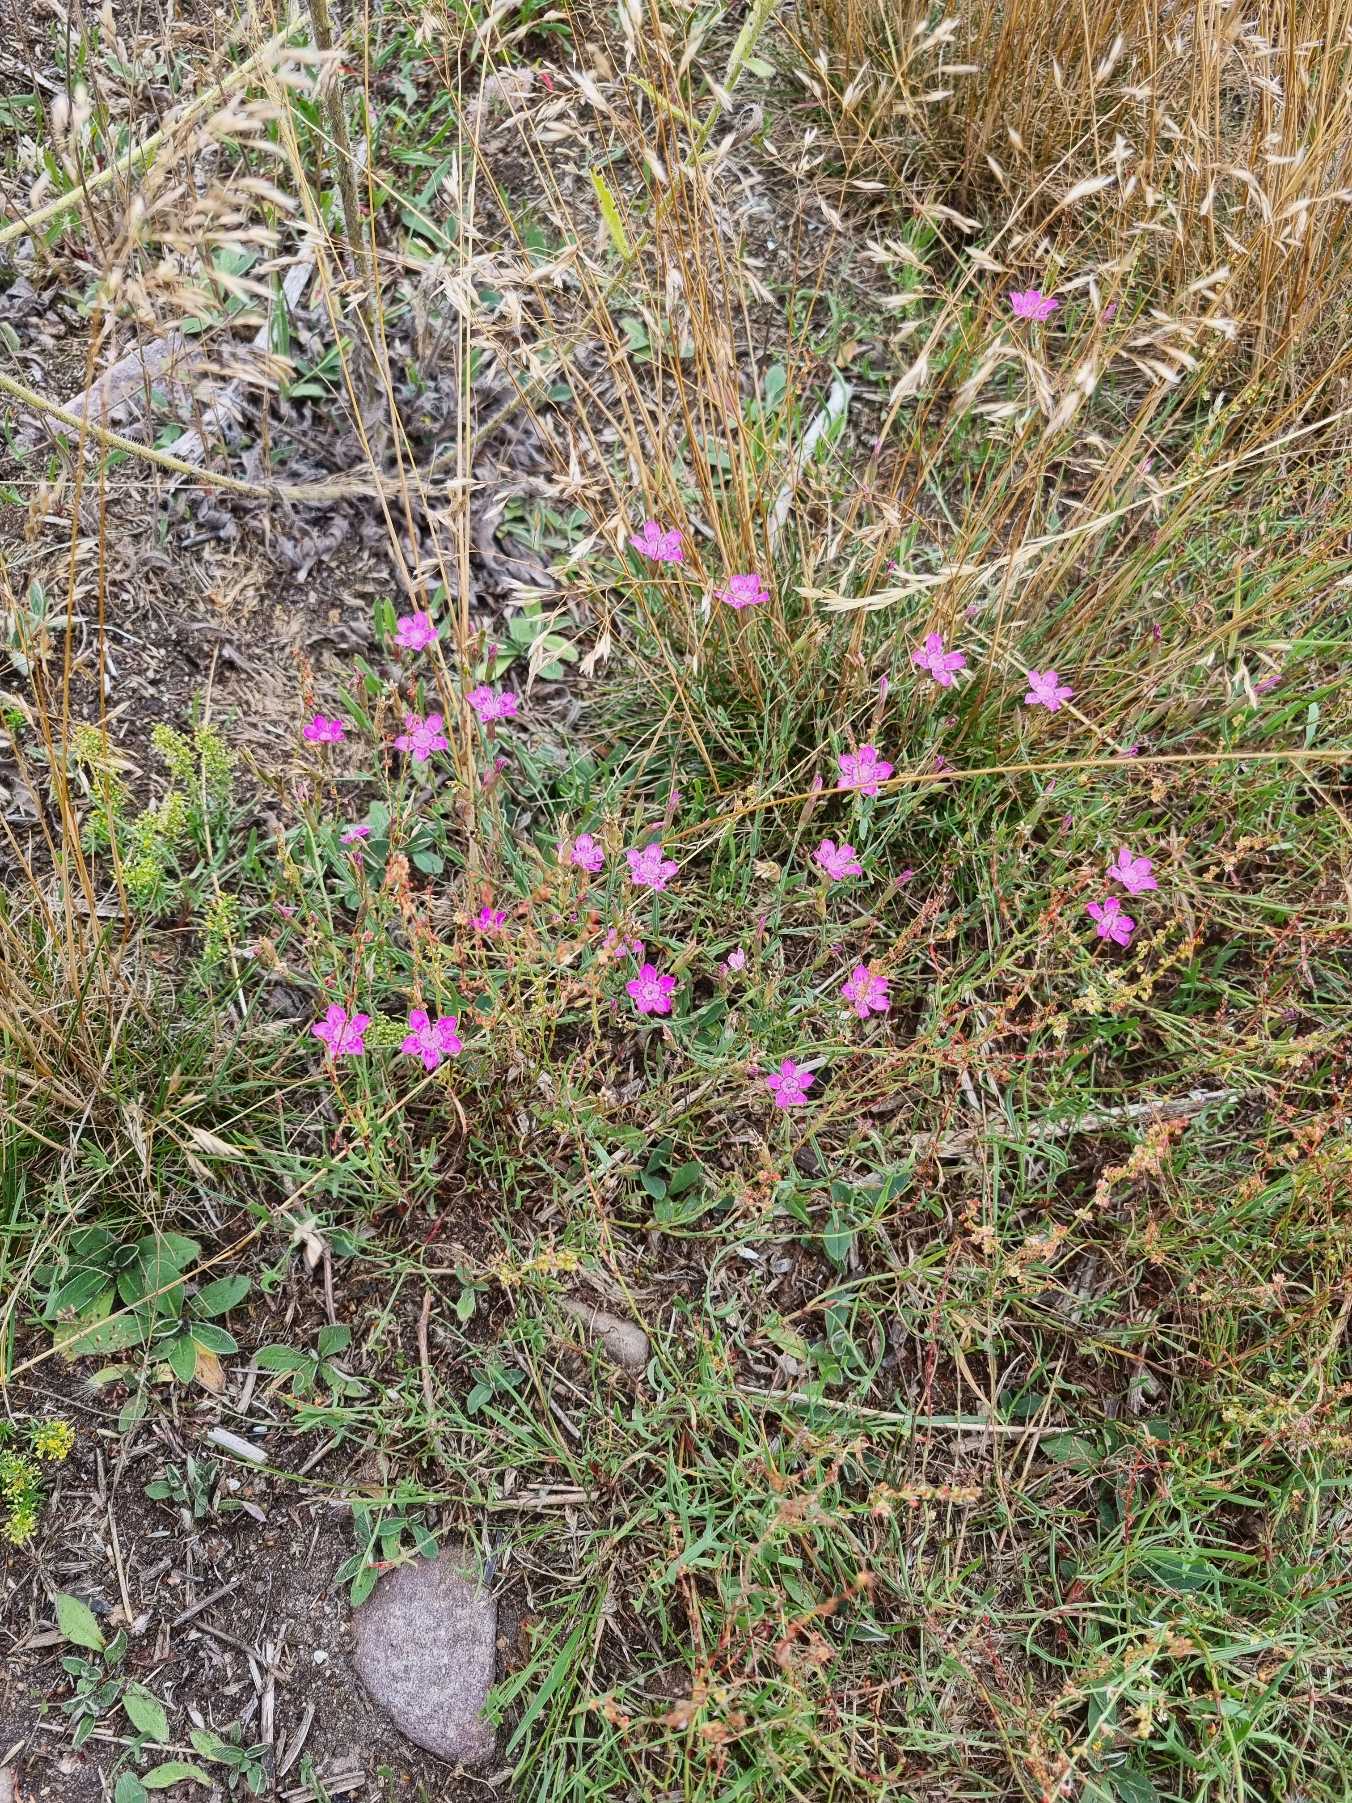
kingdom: Plantae
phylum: Tracheophyta
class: Magnoliopsida
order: Caryophyllales
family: Caryophyllaceae
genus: Dianthus
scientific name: Dianthus deltoides
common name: Bakke-nellike
